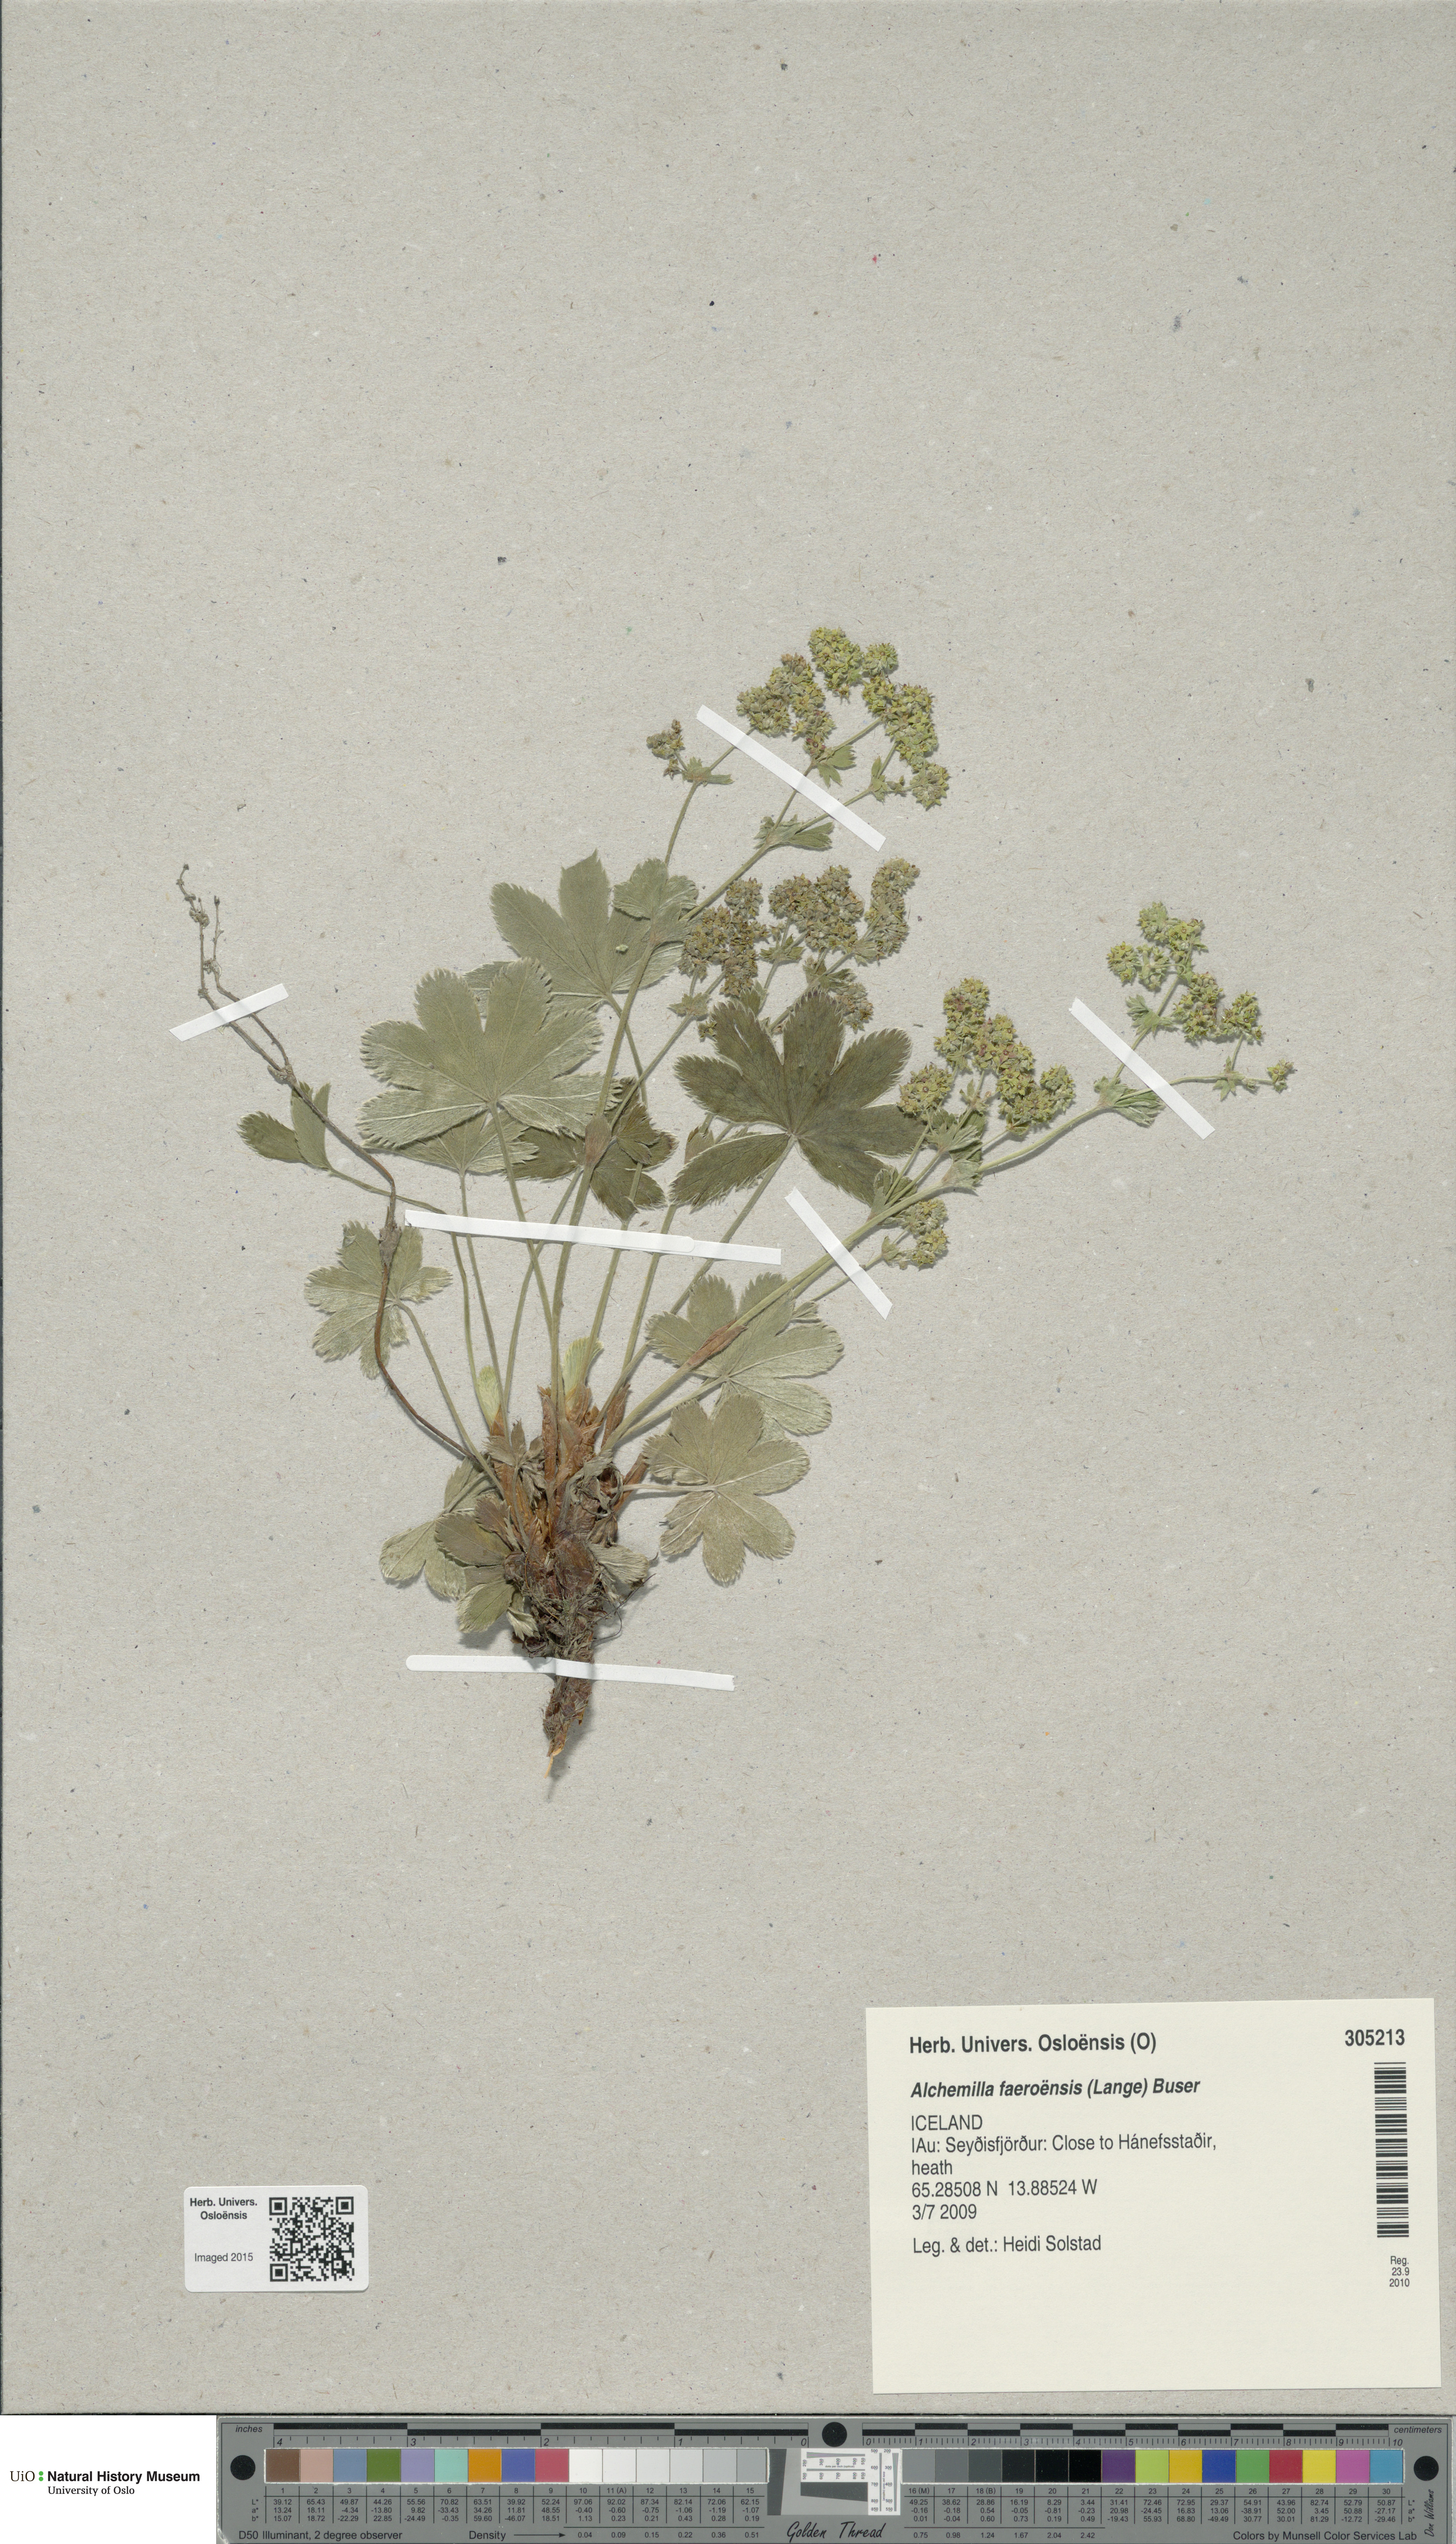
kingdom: Plantae
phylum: Tracheophyta
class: Magnoliopsida
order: Rosales
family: Rosaceae
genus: Alchemilla
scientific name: Alchemilla faeroensis
